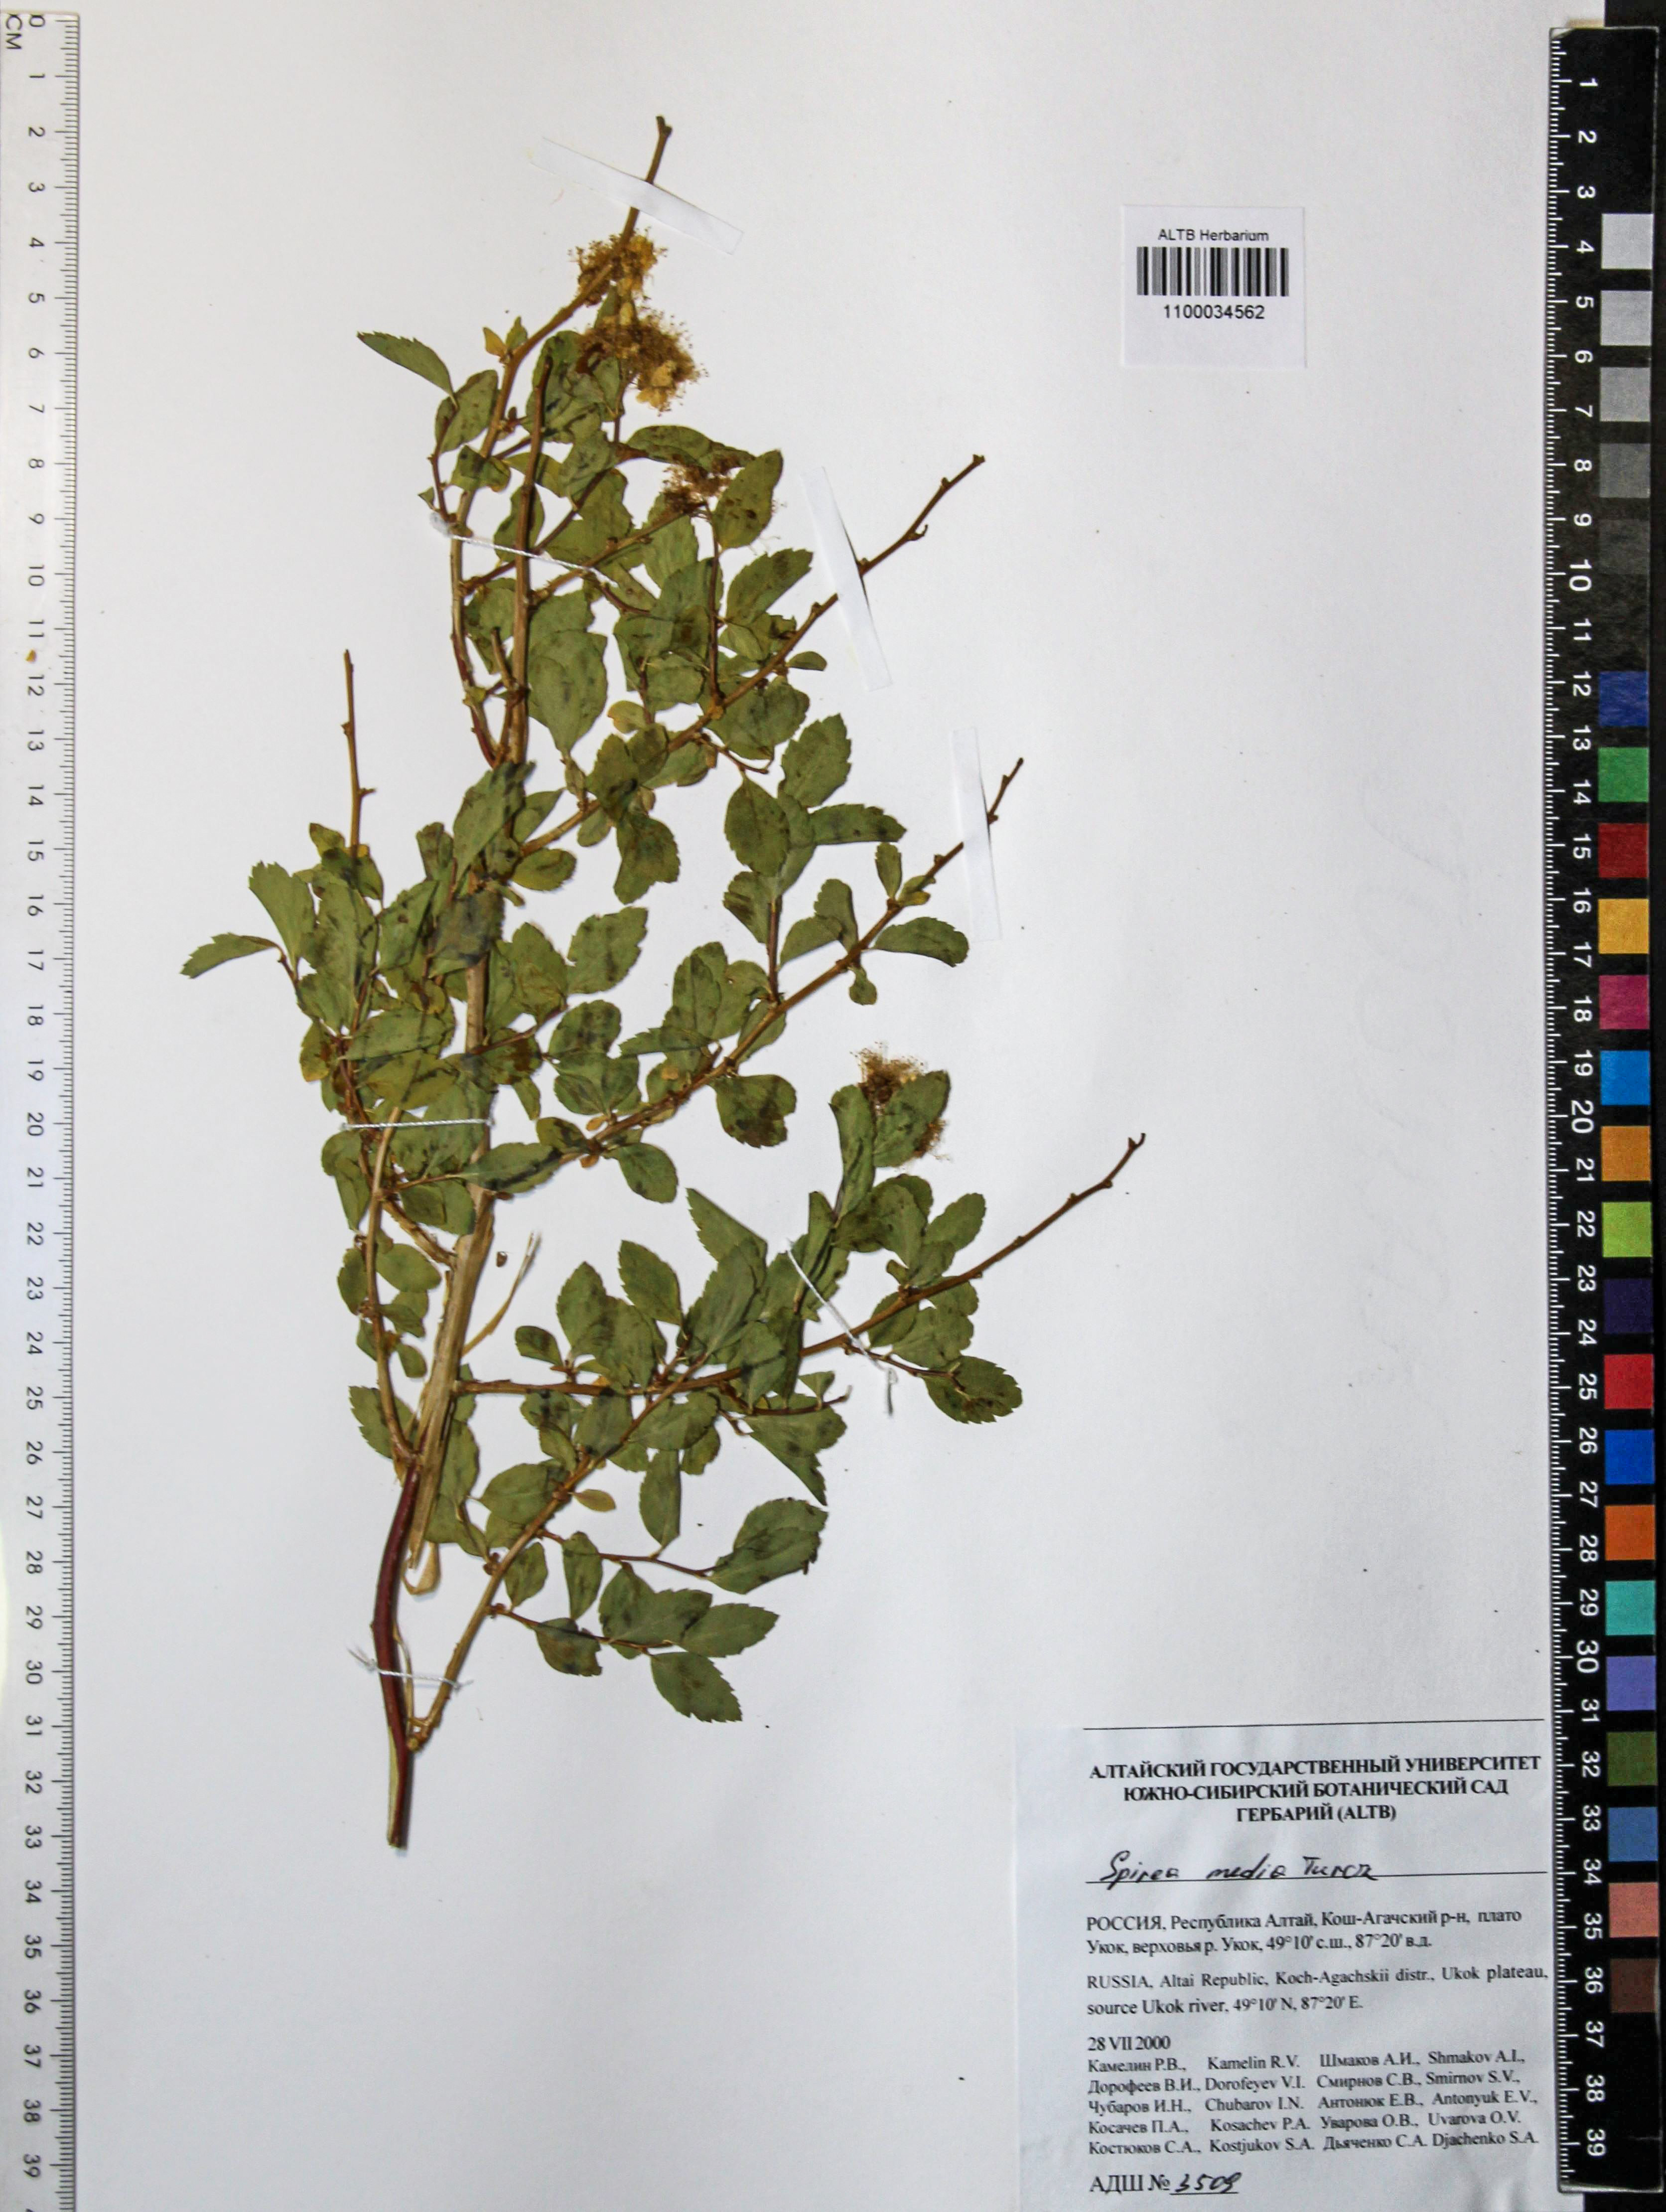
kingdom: Plantae
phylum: Tracheophyta
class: Magnoliopsida
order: Rosales
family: Rosaceae
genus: Spiraea
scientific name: Spiraea media
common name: Russian spiraea
